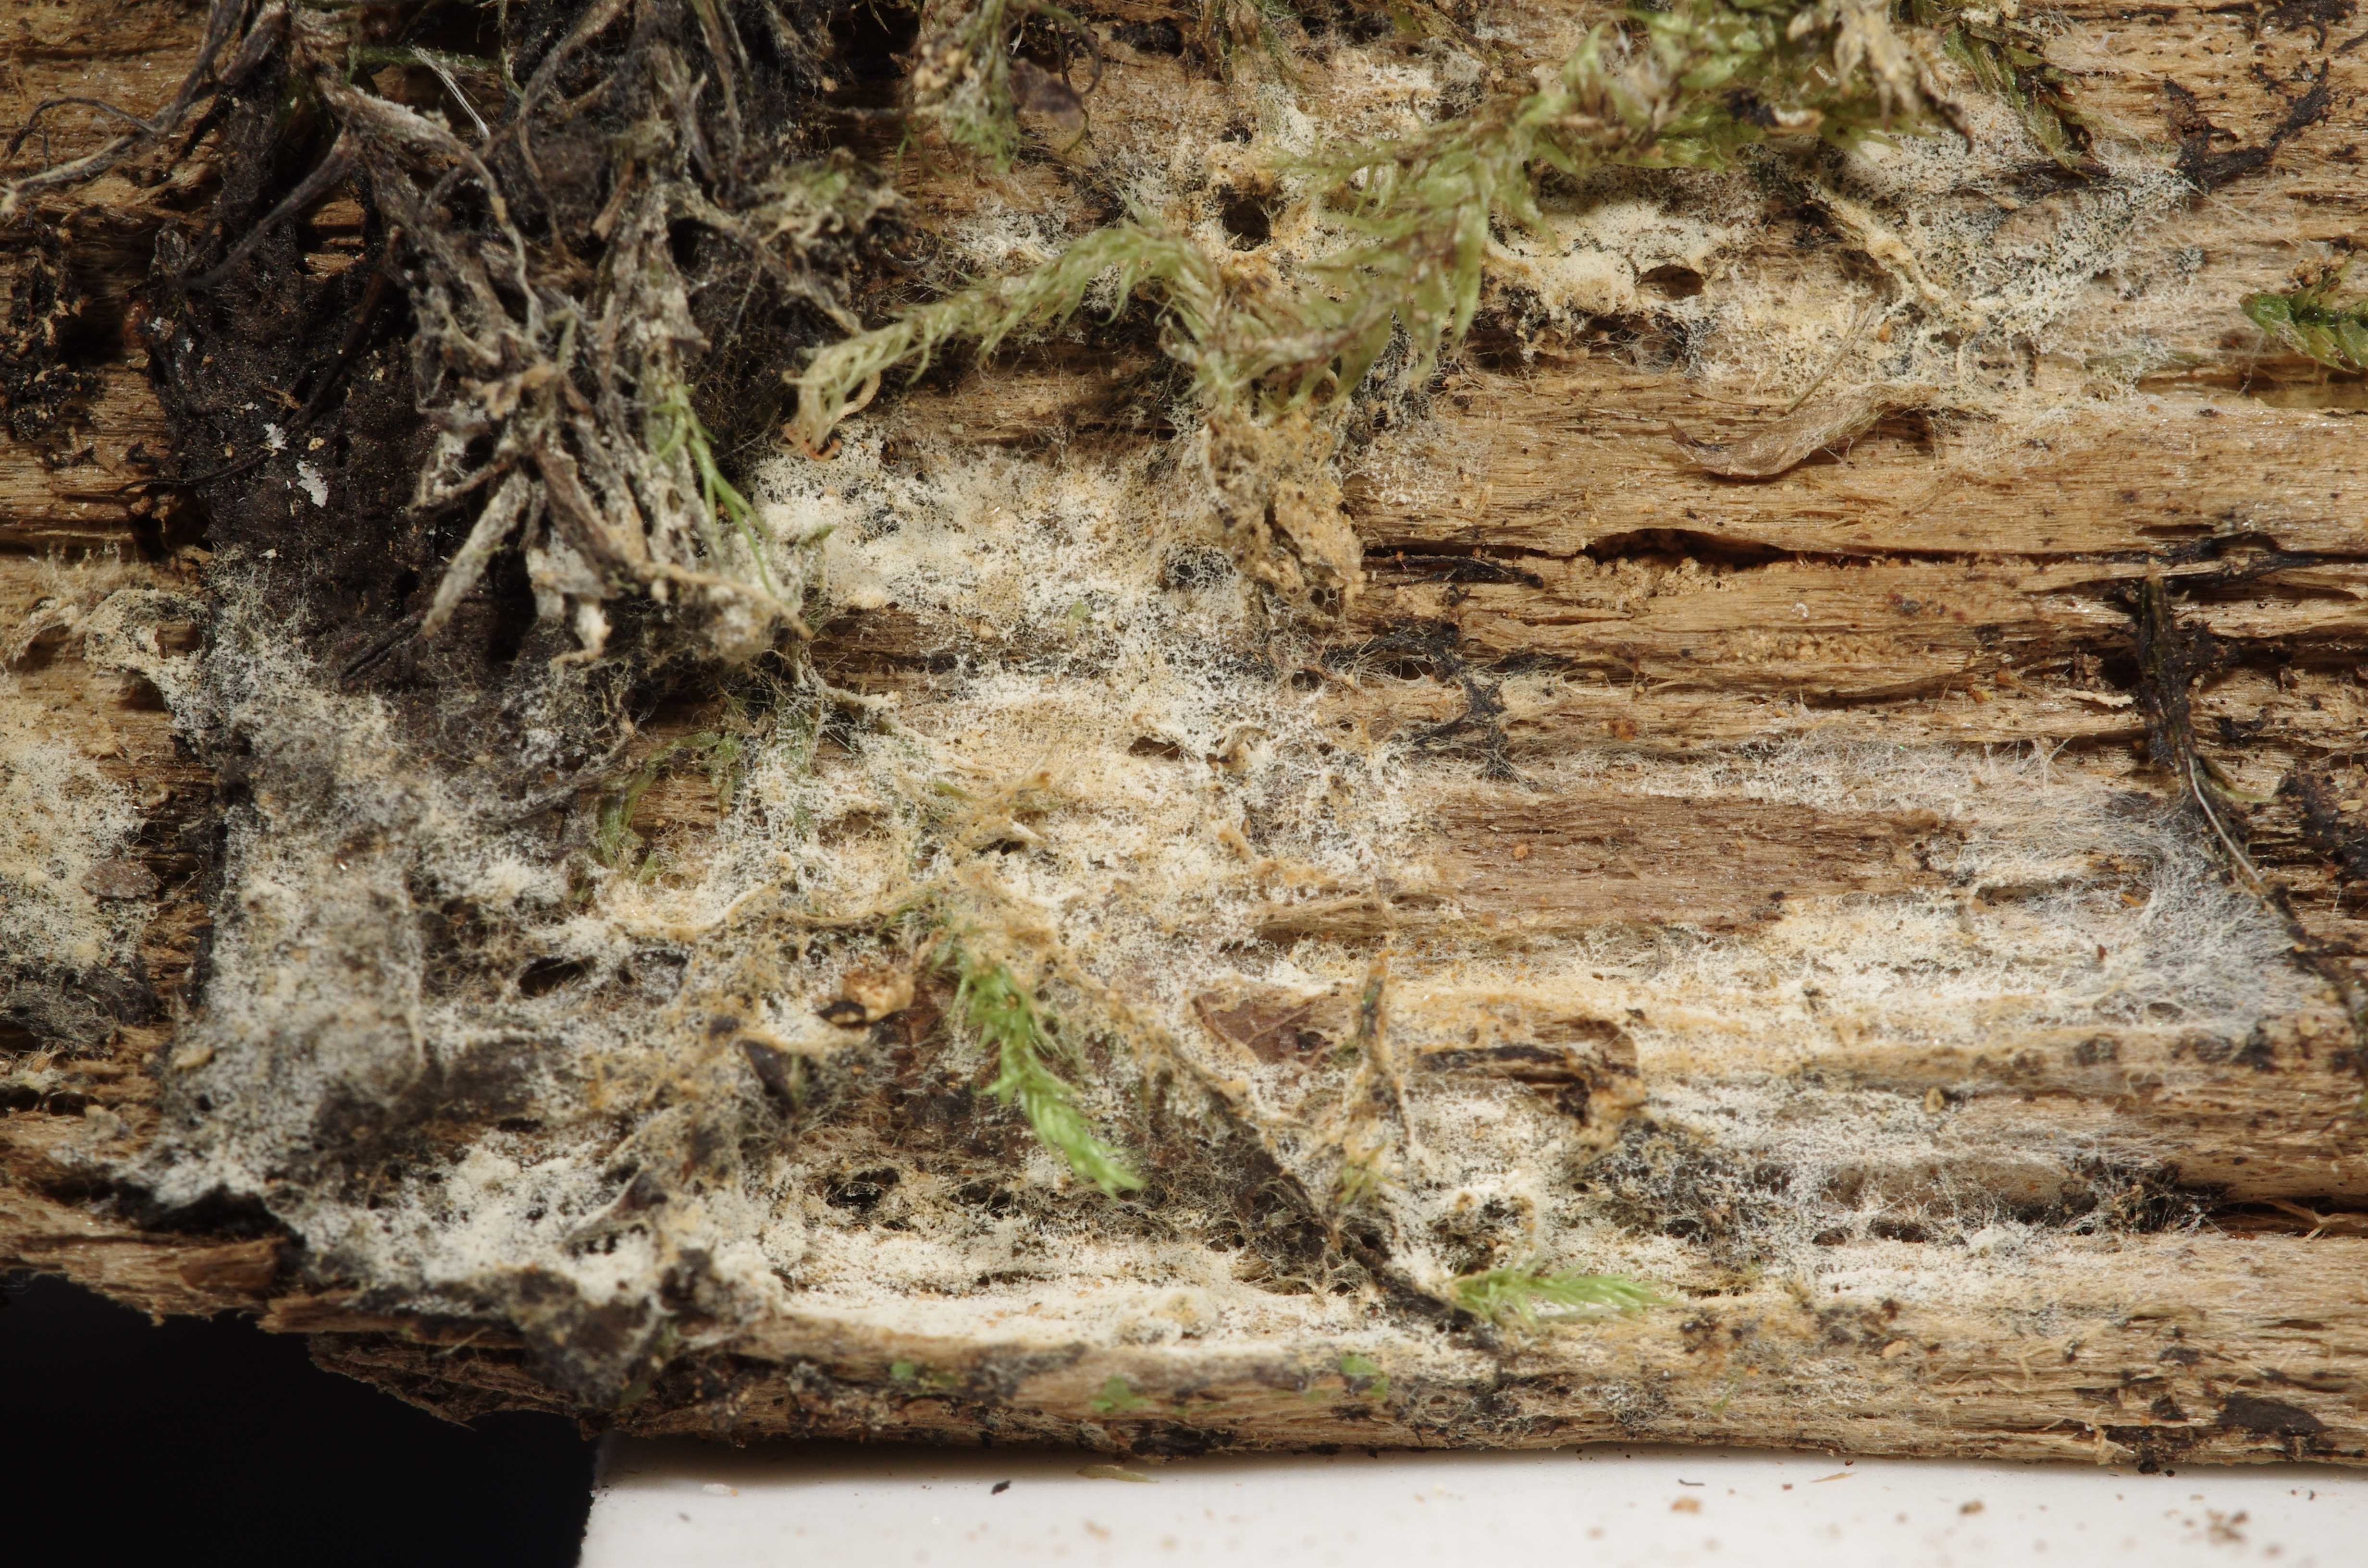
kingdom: Fungi
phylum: Basidiomycota
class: Agaricomycetes
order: Thelephorales
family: Thelephoraceae
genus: Tomentellopsis
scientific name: Tomentellopsis
